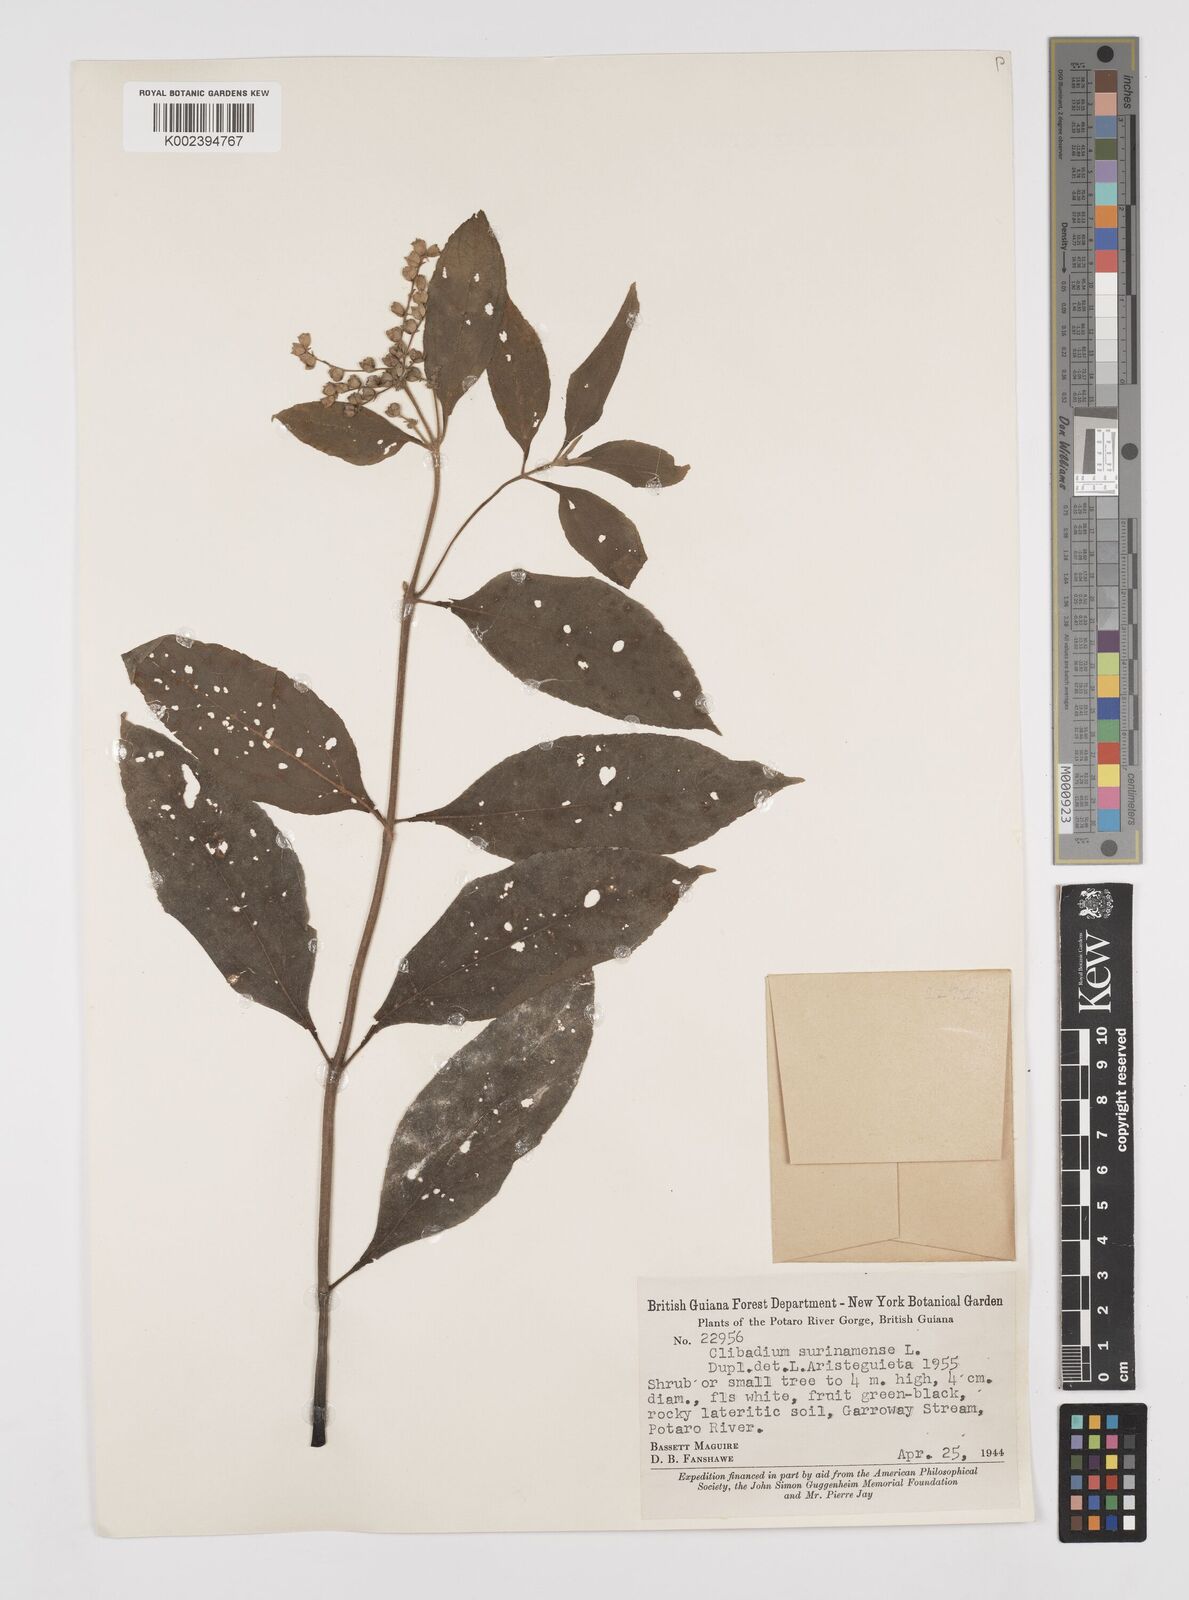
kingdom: Plantae
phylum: Tracheophyta
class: Magnoliopsida
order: Asterales
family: Asteraceae
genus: Clibadium
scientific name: Clibadium surinamense
